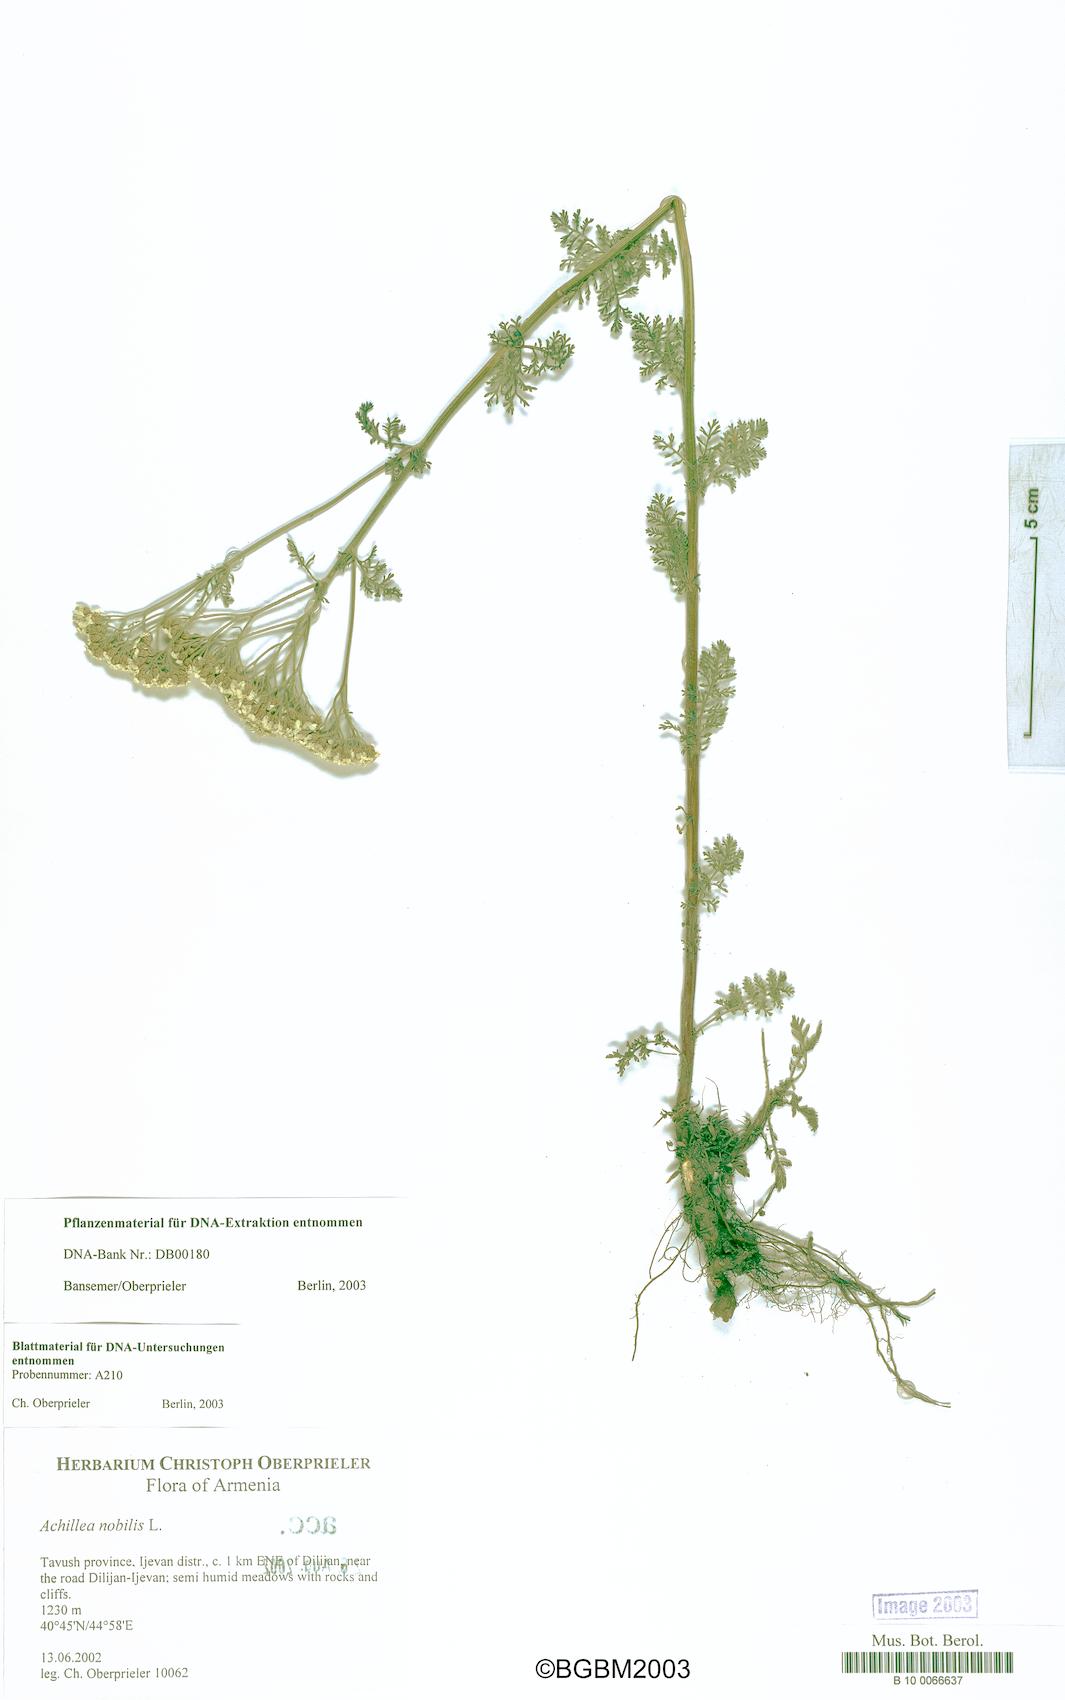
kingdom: Plantae
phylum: Tracheophyta
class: Magnoliopsida
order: Asterales
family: Asteraceae
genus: Achillea
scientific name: Achillea nobilis
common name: Noble yarrow
